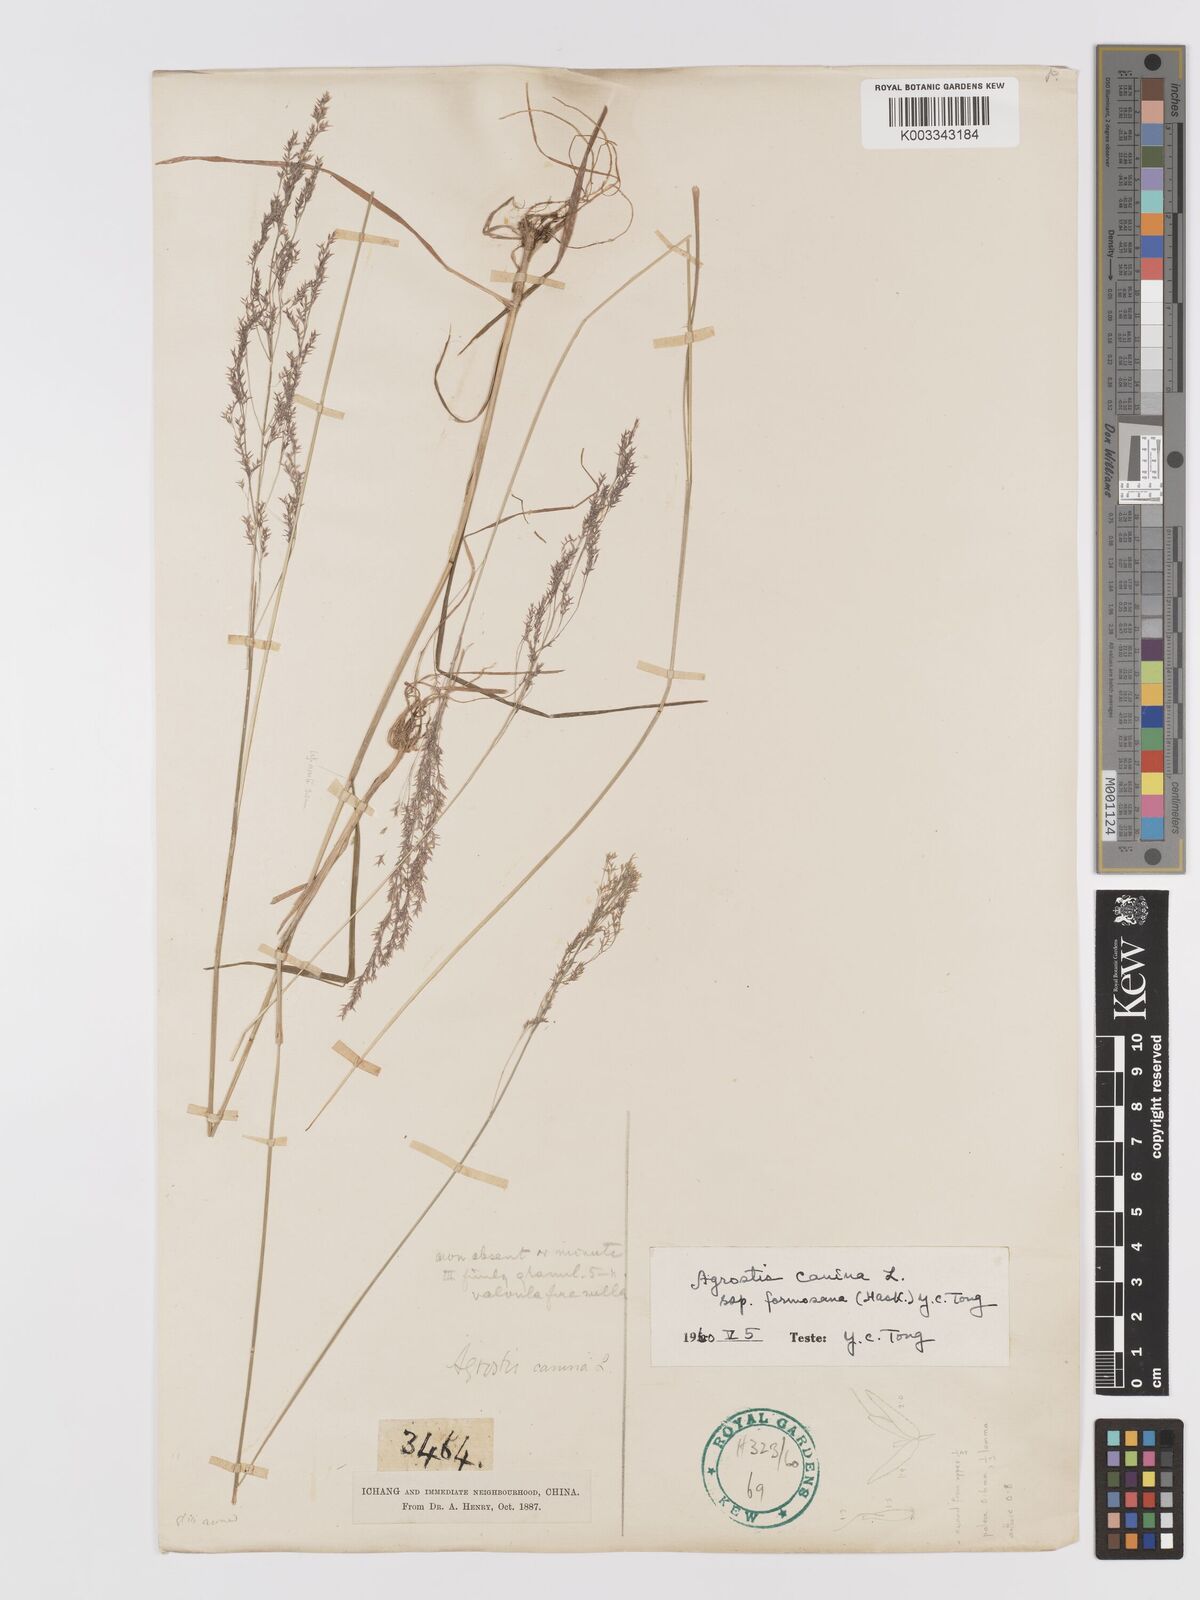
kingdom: Plantae
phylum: Tracheophyta
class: Liliopsida
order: Poales
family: Poaceae
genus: Agrostis
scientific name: Agrostis infirma
